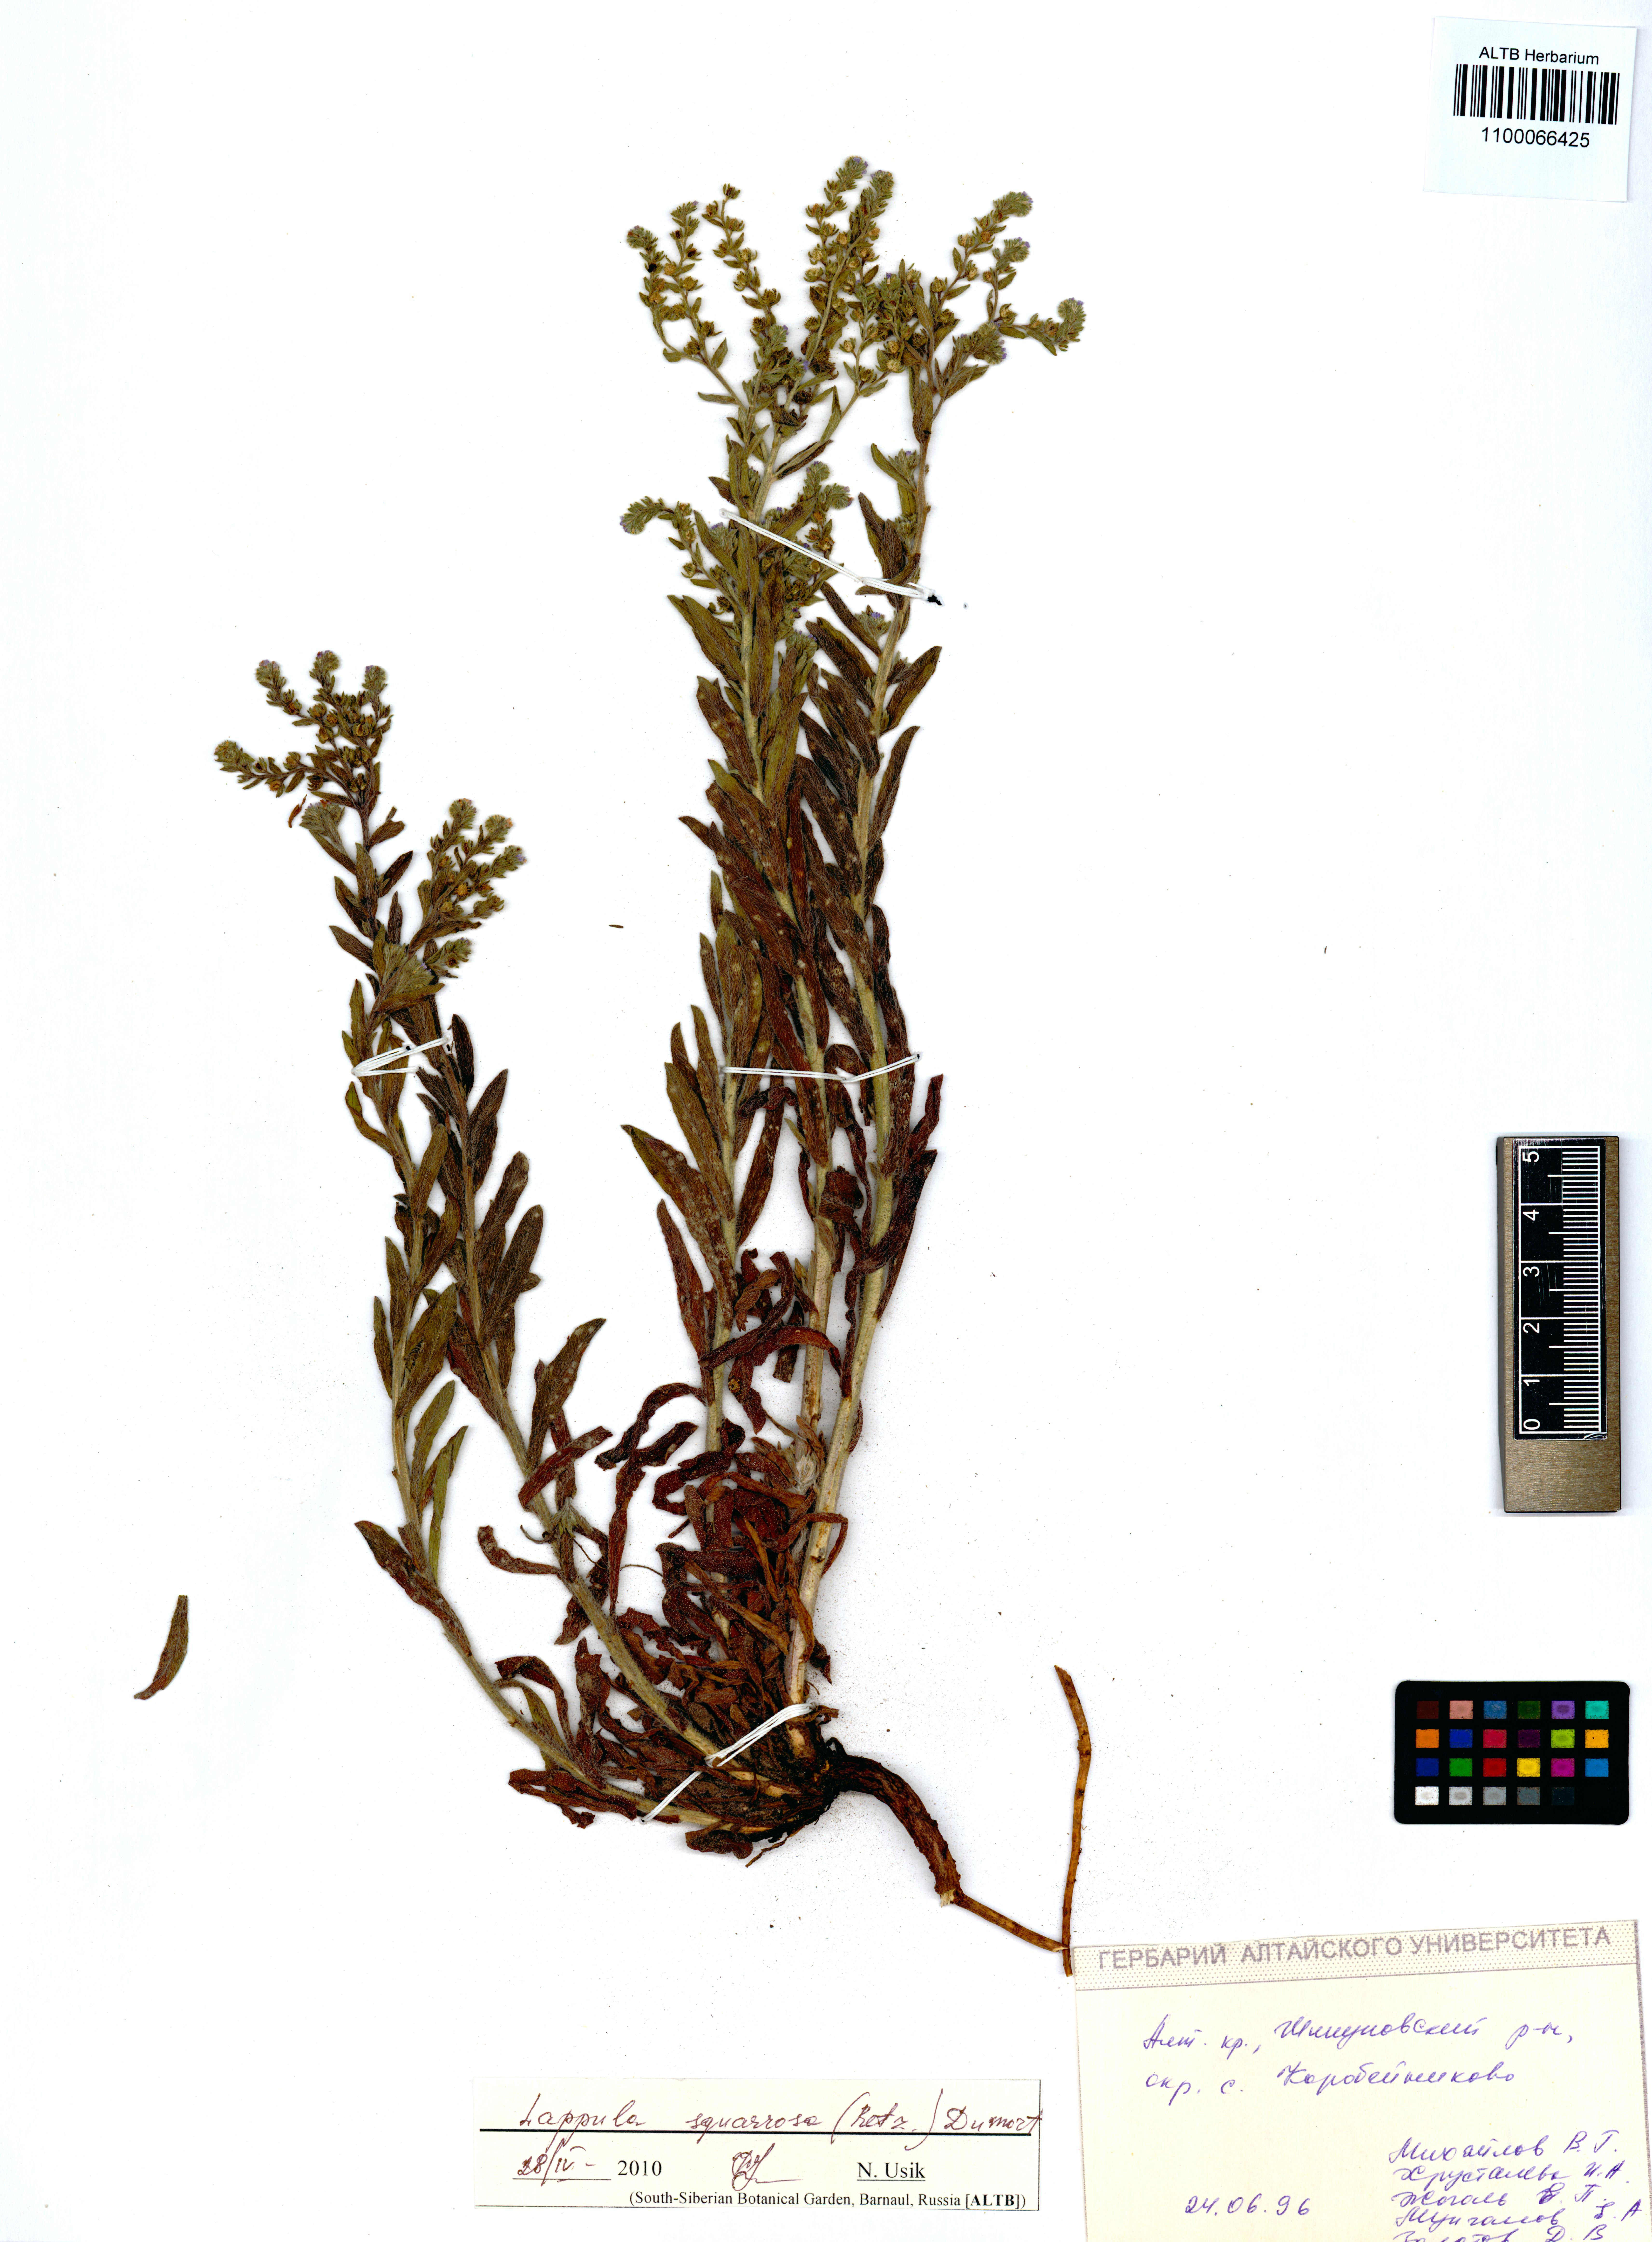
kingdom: Plantae
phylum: Tracheophyta
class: Magnoliopsida
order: Boraginales
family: Boraginaceae
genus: Lappula
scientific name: Lappula squarrosa
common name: European stickseed
